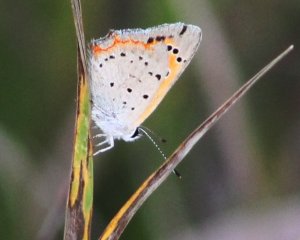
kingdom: Animalia
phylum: Arthropoda
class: Insecta
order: Lepidoptera
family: Lycaenidae
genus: Lycaena
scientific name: Lycaena phlaeas
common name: American Copper
